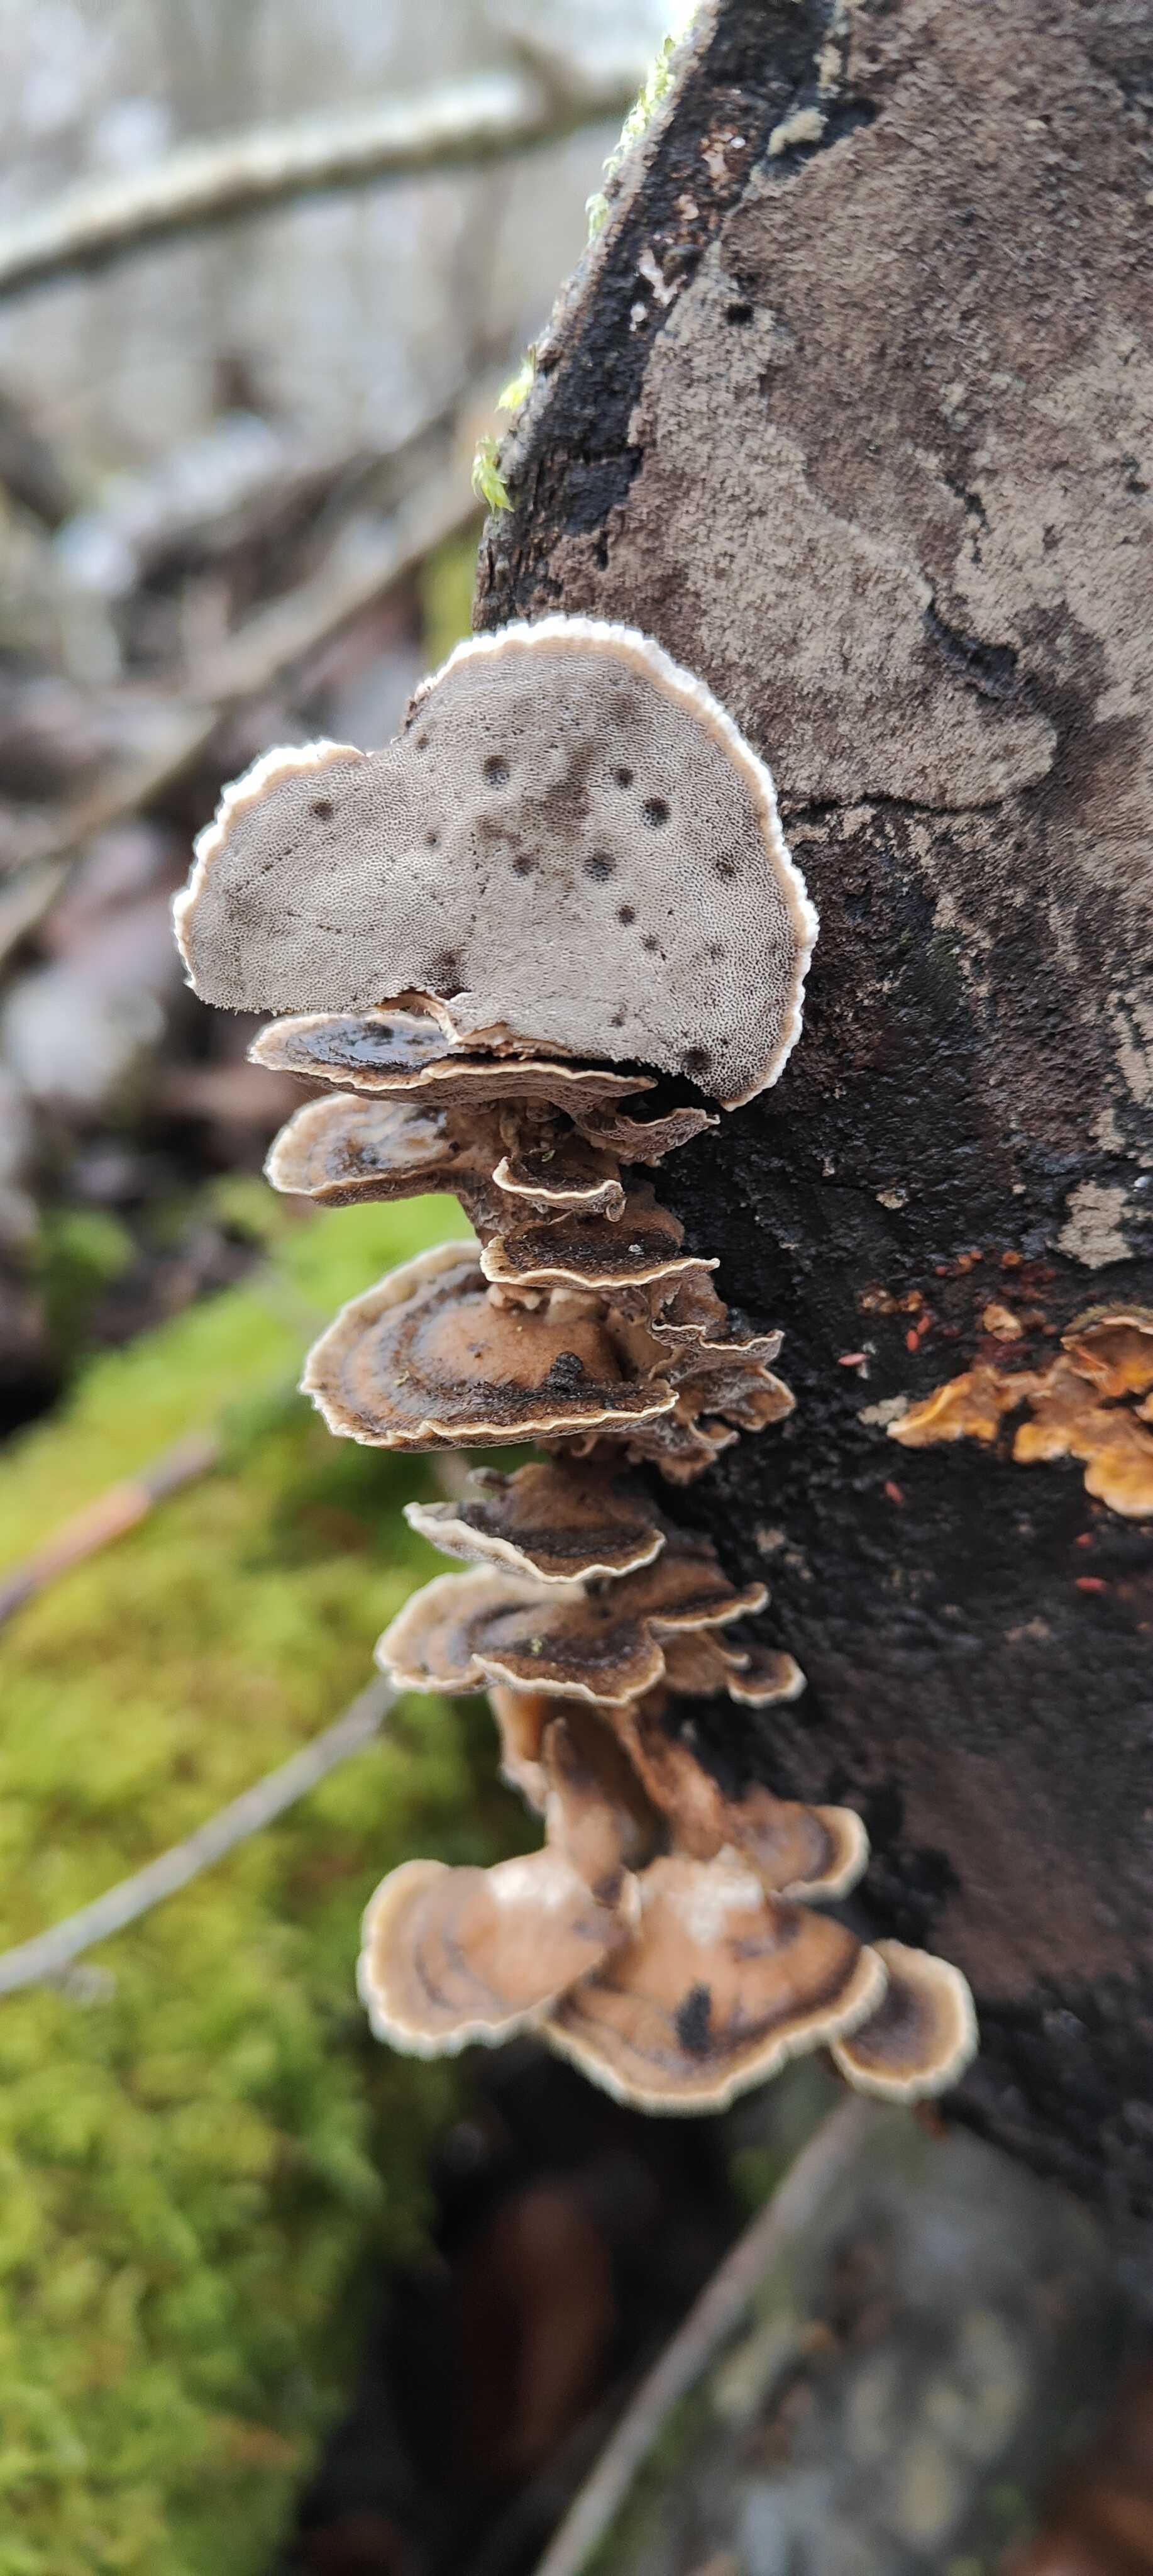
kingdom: Fungi
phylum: Basidiomycota
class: Agaricomycetes
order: Polyporales
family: Phanerochaetaceae
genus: Bjerkandera
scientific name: Bjerkandera adusta
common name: sveden sodporesvamp
